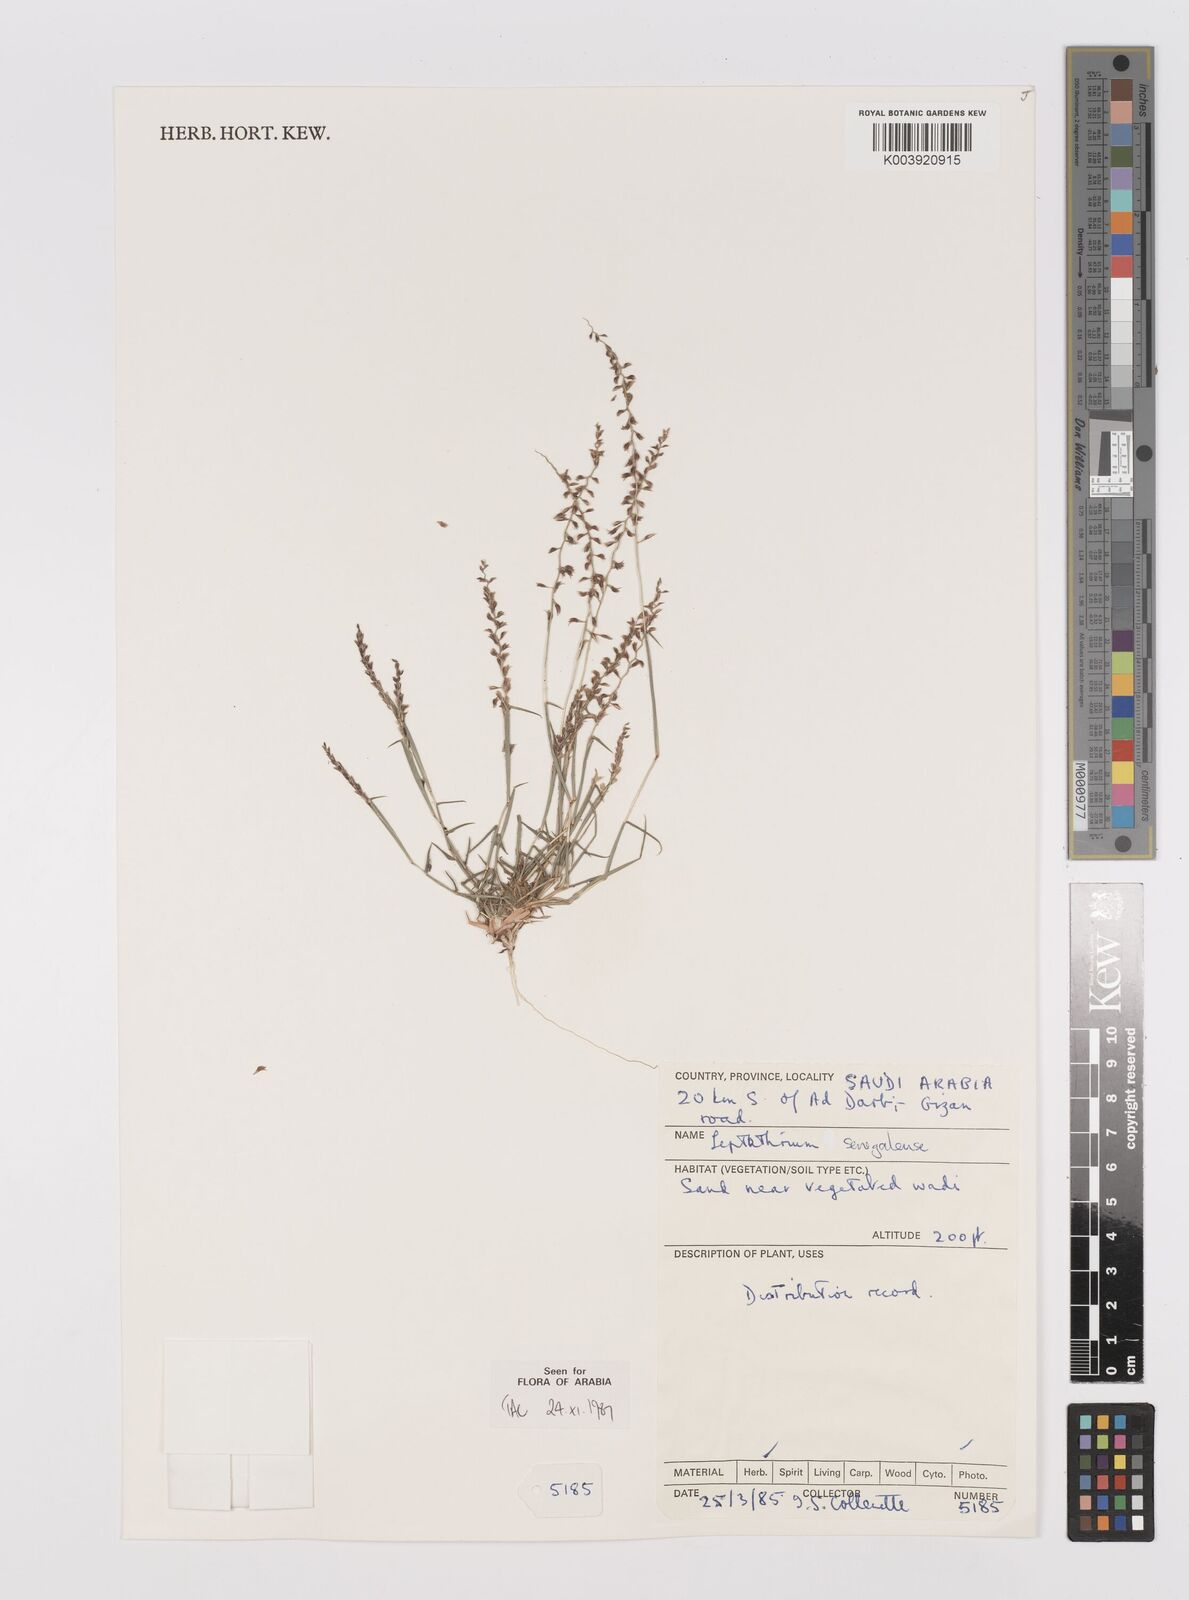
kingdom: Plantae
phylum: Tracheophyta
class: Liliopsida
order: Poales
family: Poaceae
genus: Leptothrium
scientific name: Leptothrium senegalense
